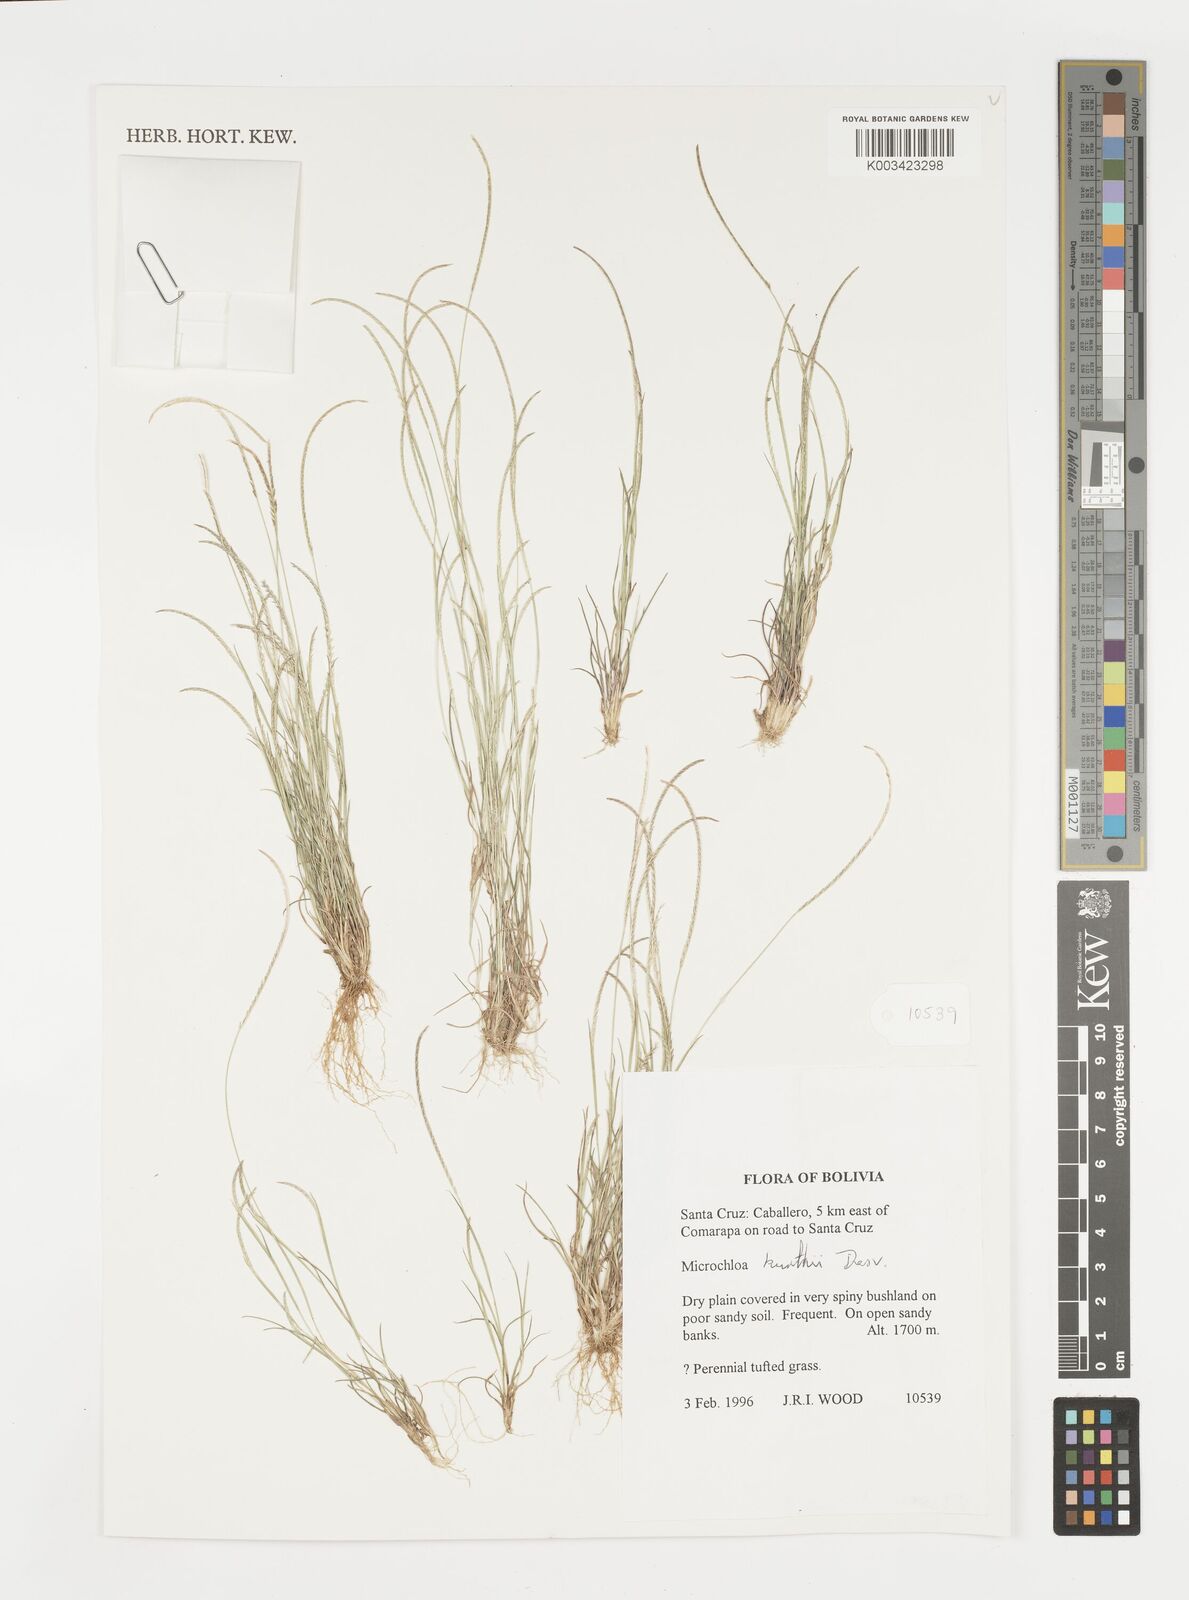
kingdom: Plantae
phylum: Tracheophyta
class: Liliopsida
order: Poales
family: Poaceae
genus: Microchloa
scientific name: Microchloa kunthii
